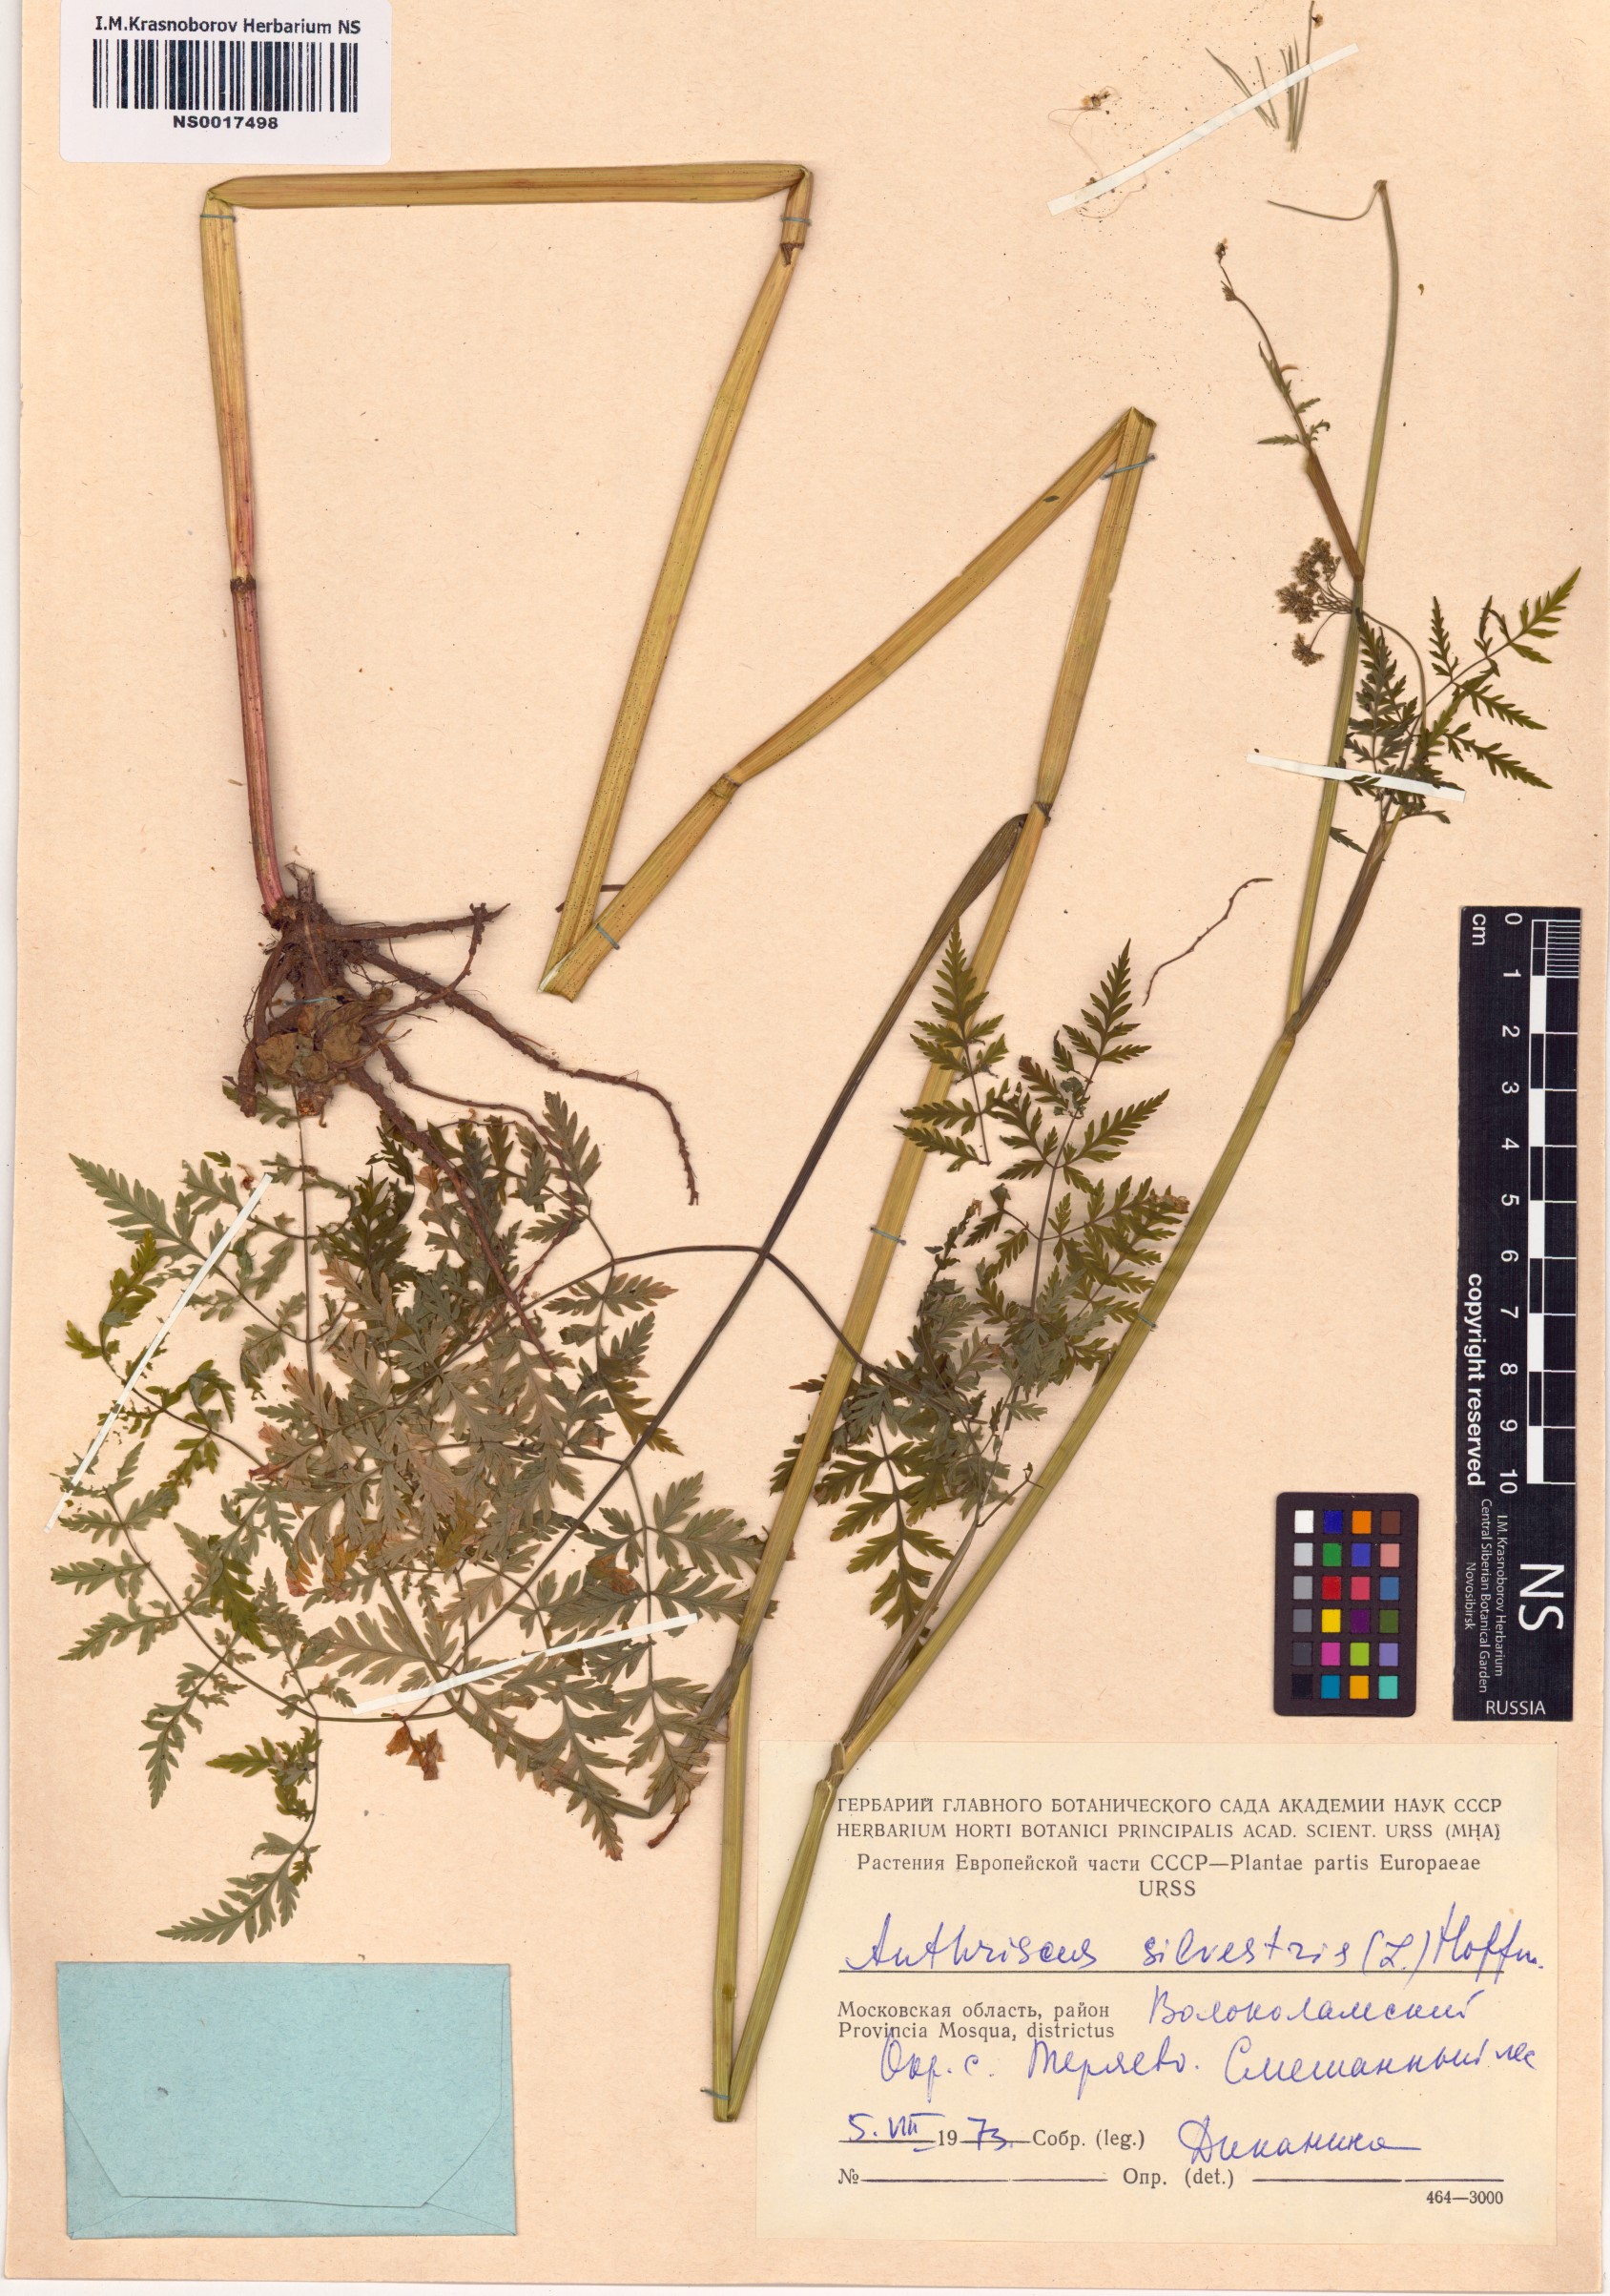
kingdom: Plantae
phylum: Tracheophyta
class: Magnoliopsida
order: Apiales
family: Apiaceae
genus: Anthriscus
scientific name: Anthriscus sylvestris
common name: Cow parsley
